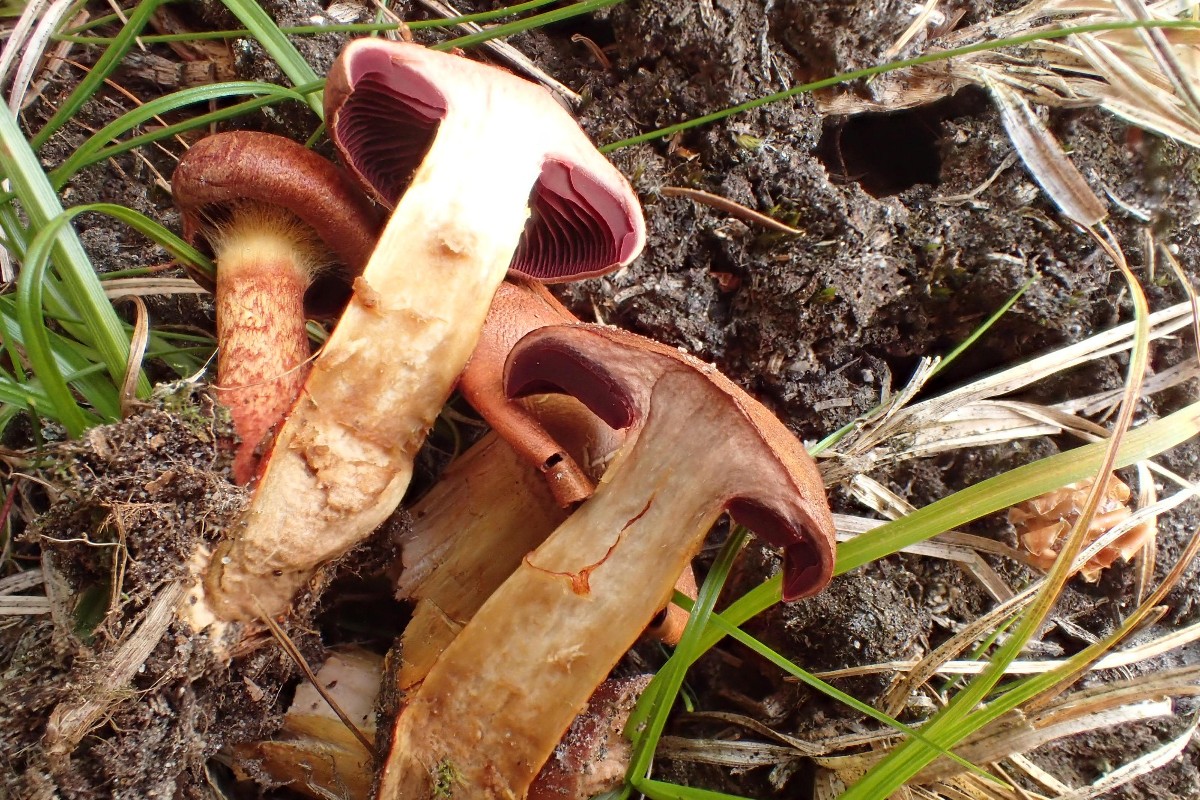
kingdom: Fungi
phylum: Basidiomycota
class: Agaricomycetes
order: Agaricales
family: Cortinariaceae
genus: Cortinarius
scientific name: Cortinarius purpureus
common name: brunrød slørhat
